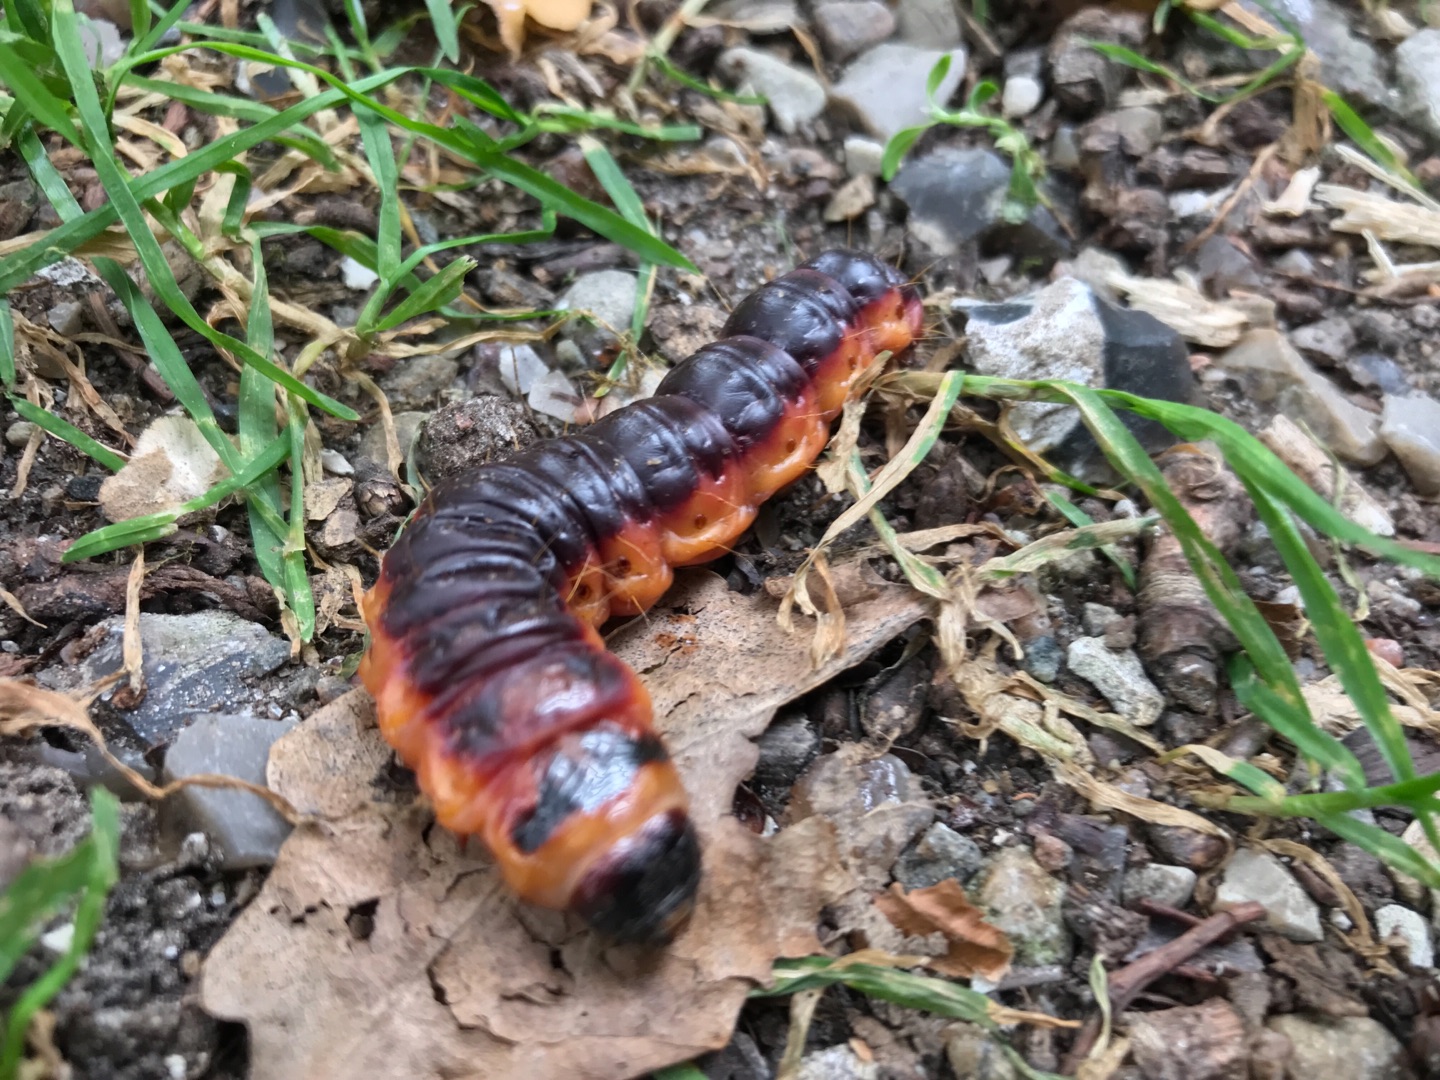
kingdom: Animalia
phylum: Arthropoda
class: Insecta
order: Lepidoptera
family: Cossidae
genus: Cossus
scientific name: Cossus cossus
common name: Pileborer
